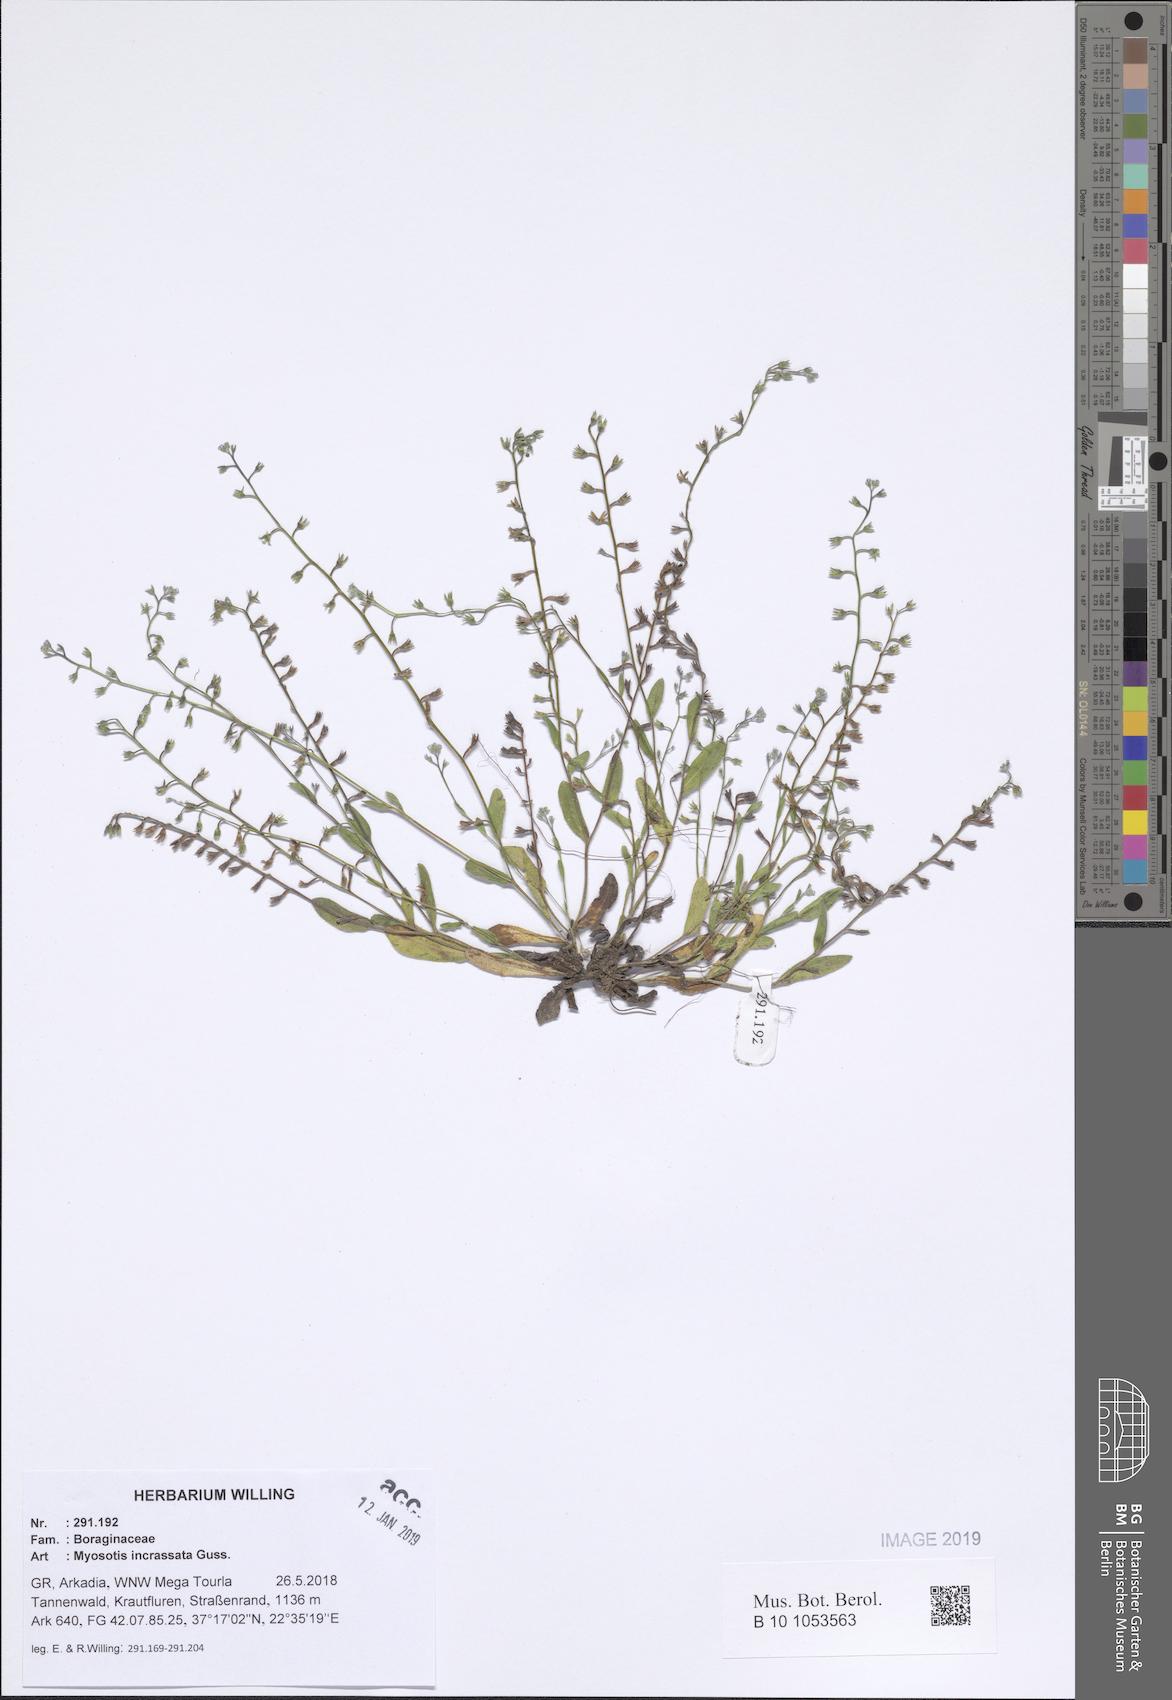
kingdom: Plantae
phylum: Tracheophyta
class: Magnoliopsida
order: Boraginales
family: Boraginaceae
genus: Myosotis
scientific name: Myosotis incrassata
